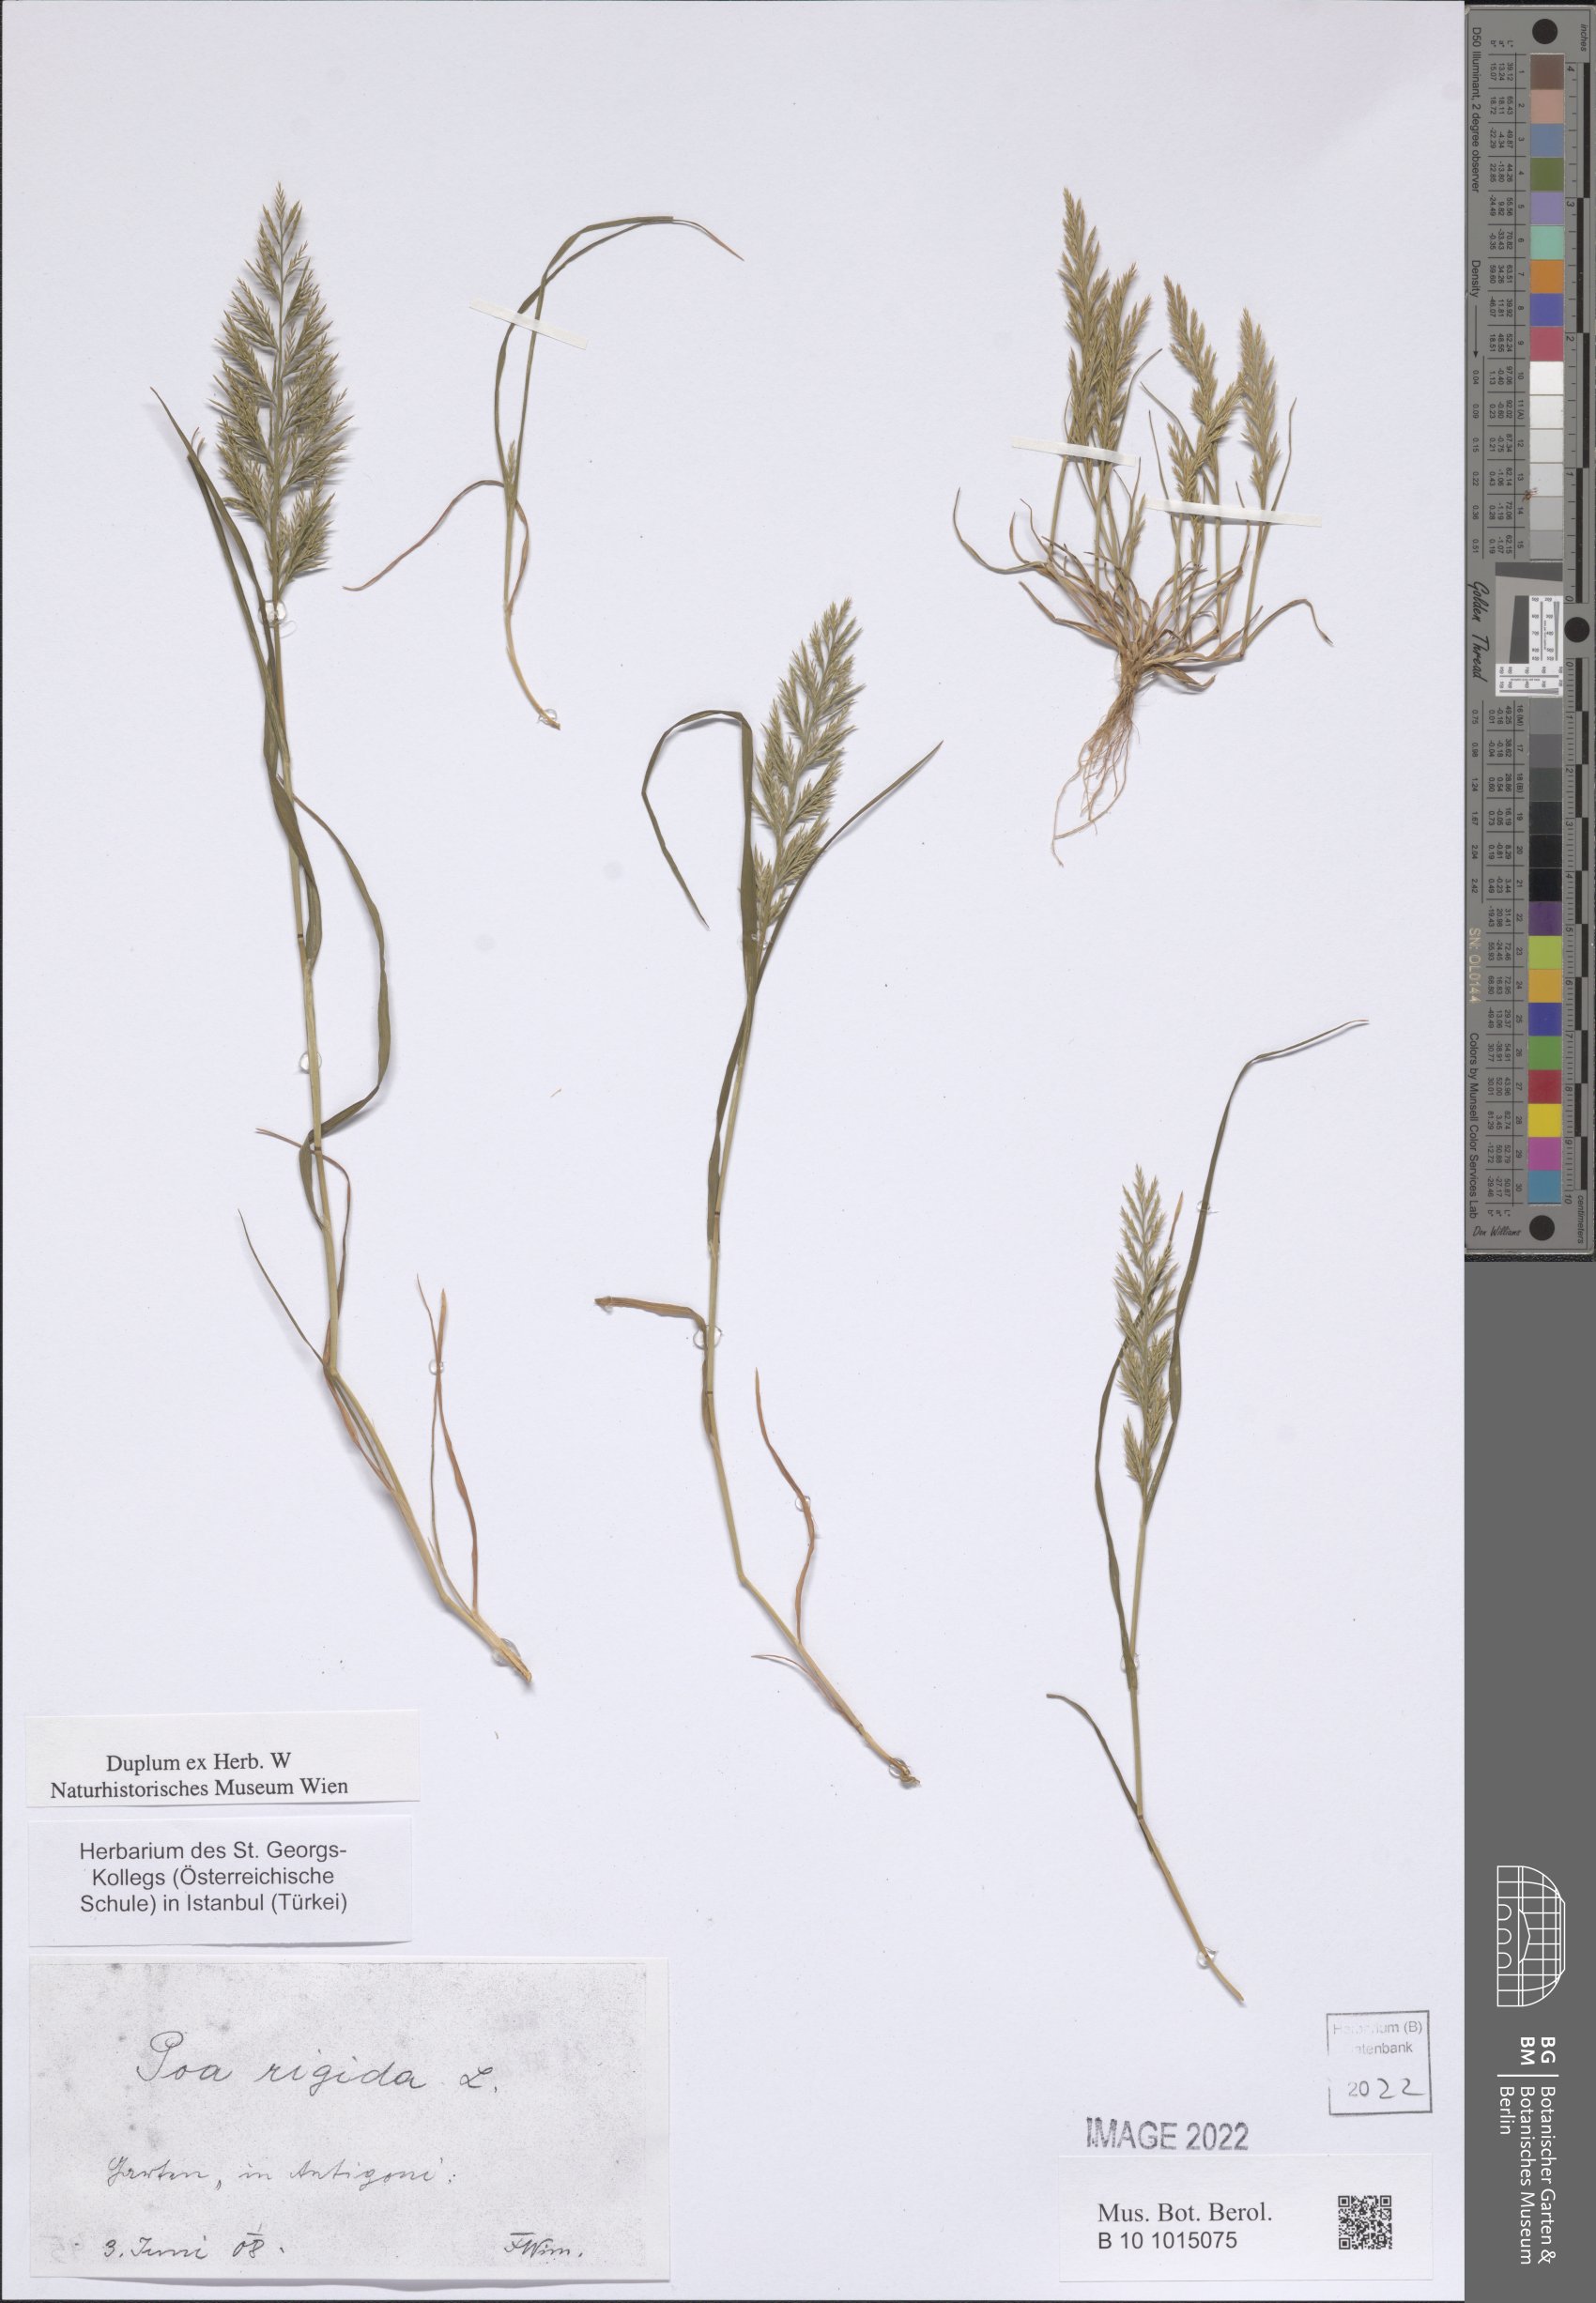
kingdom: Plantae
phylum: Tracheophyta
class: Liliopsida
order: Poales
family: Poaceae
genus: Catapodium
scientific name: Catapodium rigidum
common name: Fern-grass
